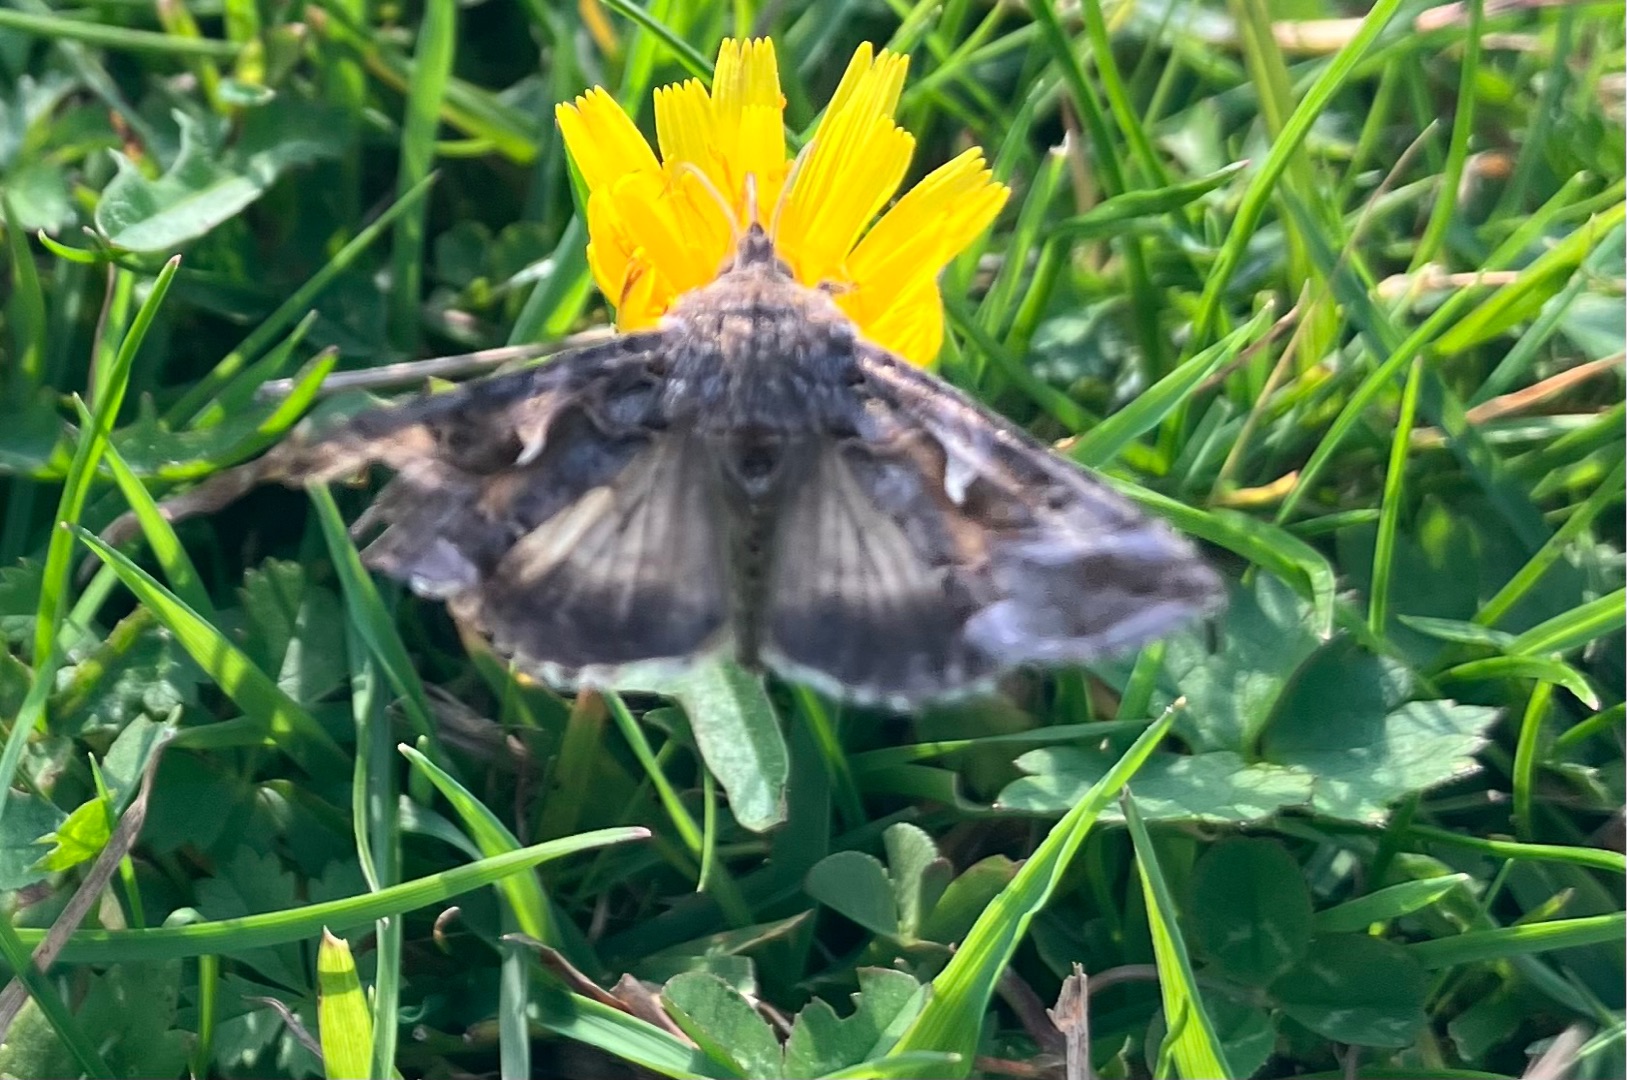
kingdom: Animalia
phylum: Arthropoda
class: Insecta
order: Lepidoptera
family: Noctuidae
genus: Autographa
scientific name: Autographa gamma
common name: Gammaugle
